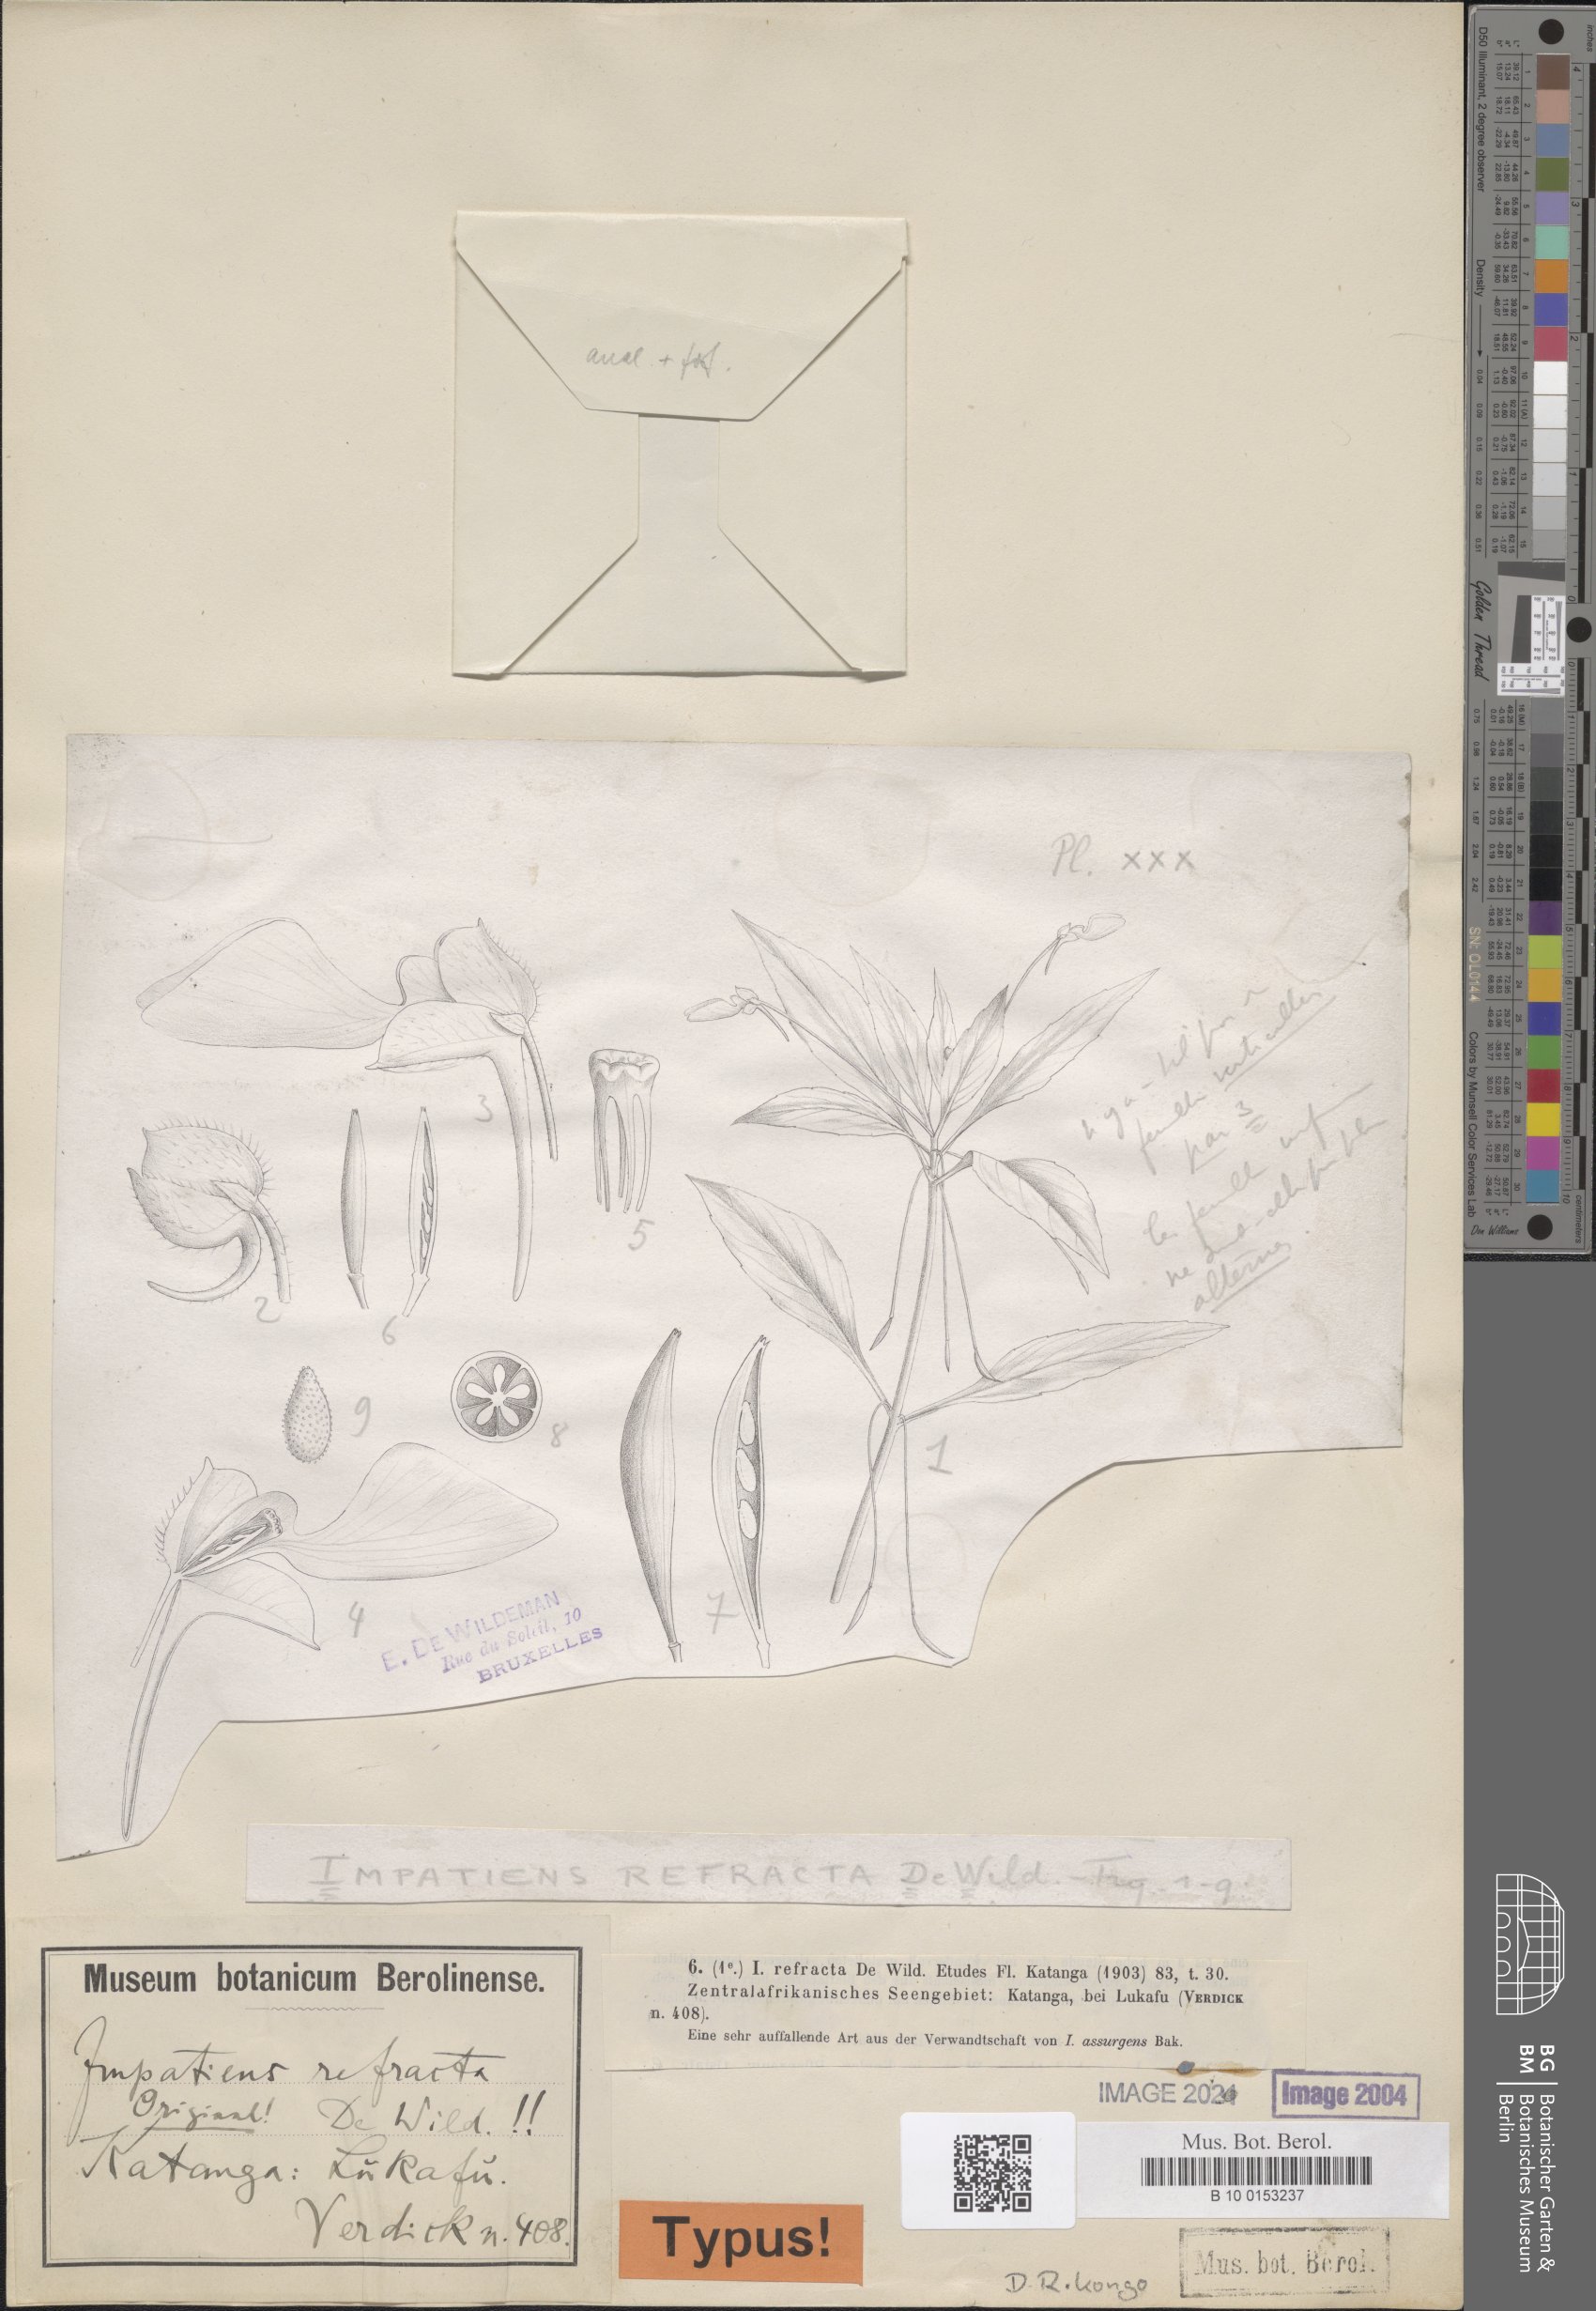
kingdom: Plantae
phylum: Tracheophyta
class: Magnoliopsida
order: Ericales
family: Balsaminaceae
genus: Impatiens
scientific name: Impatiens assurgens
